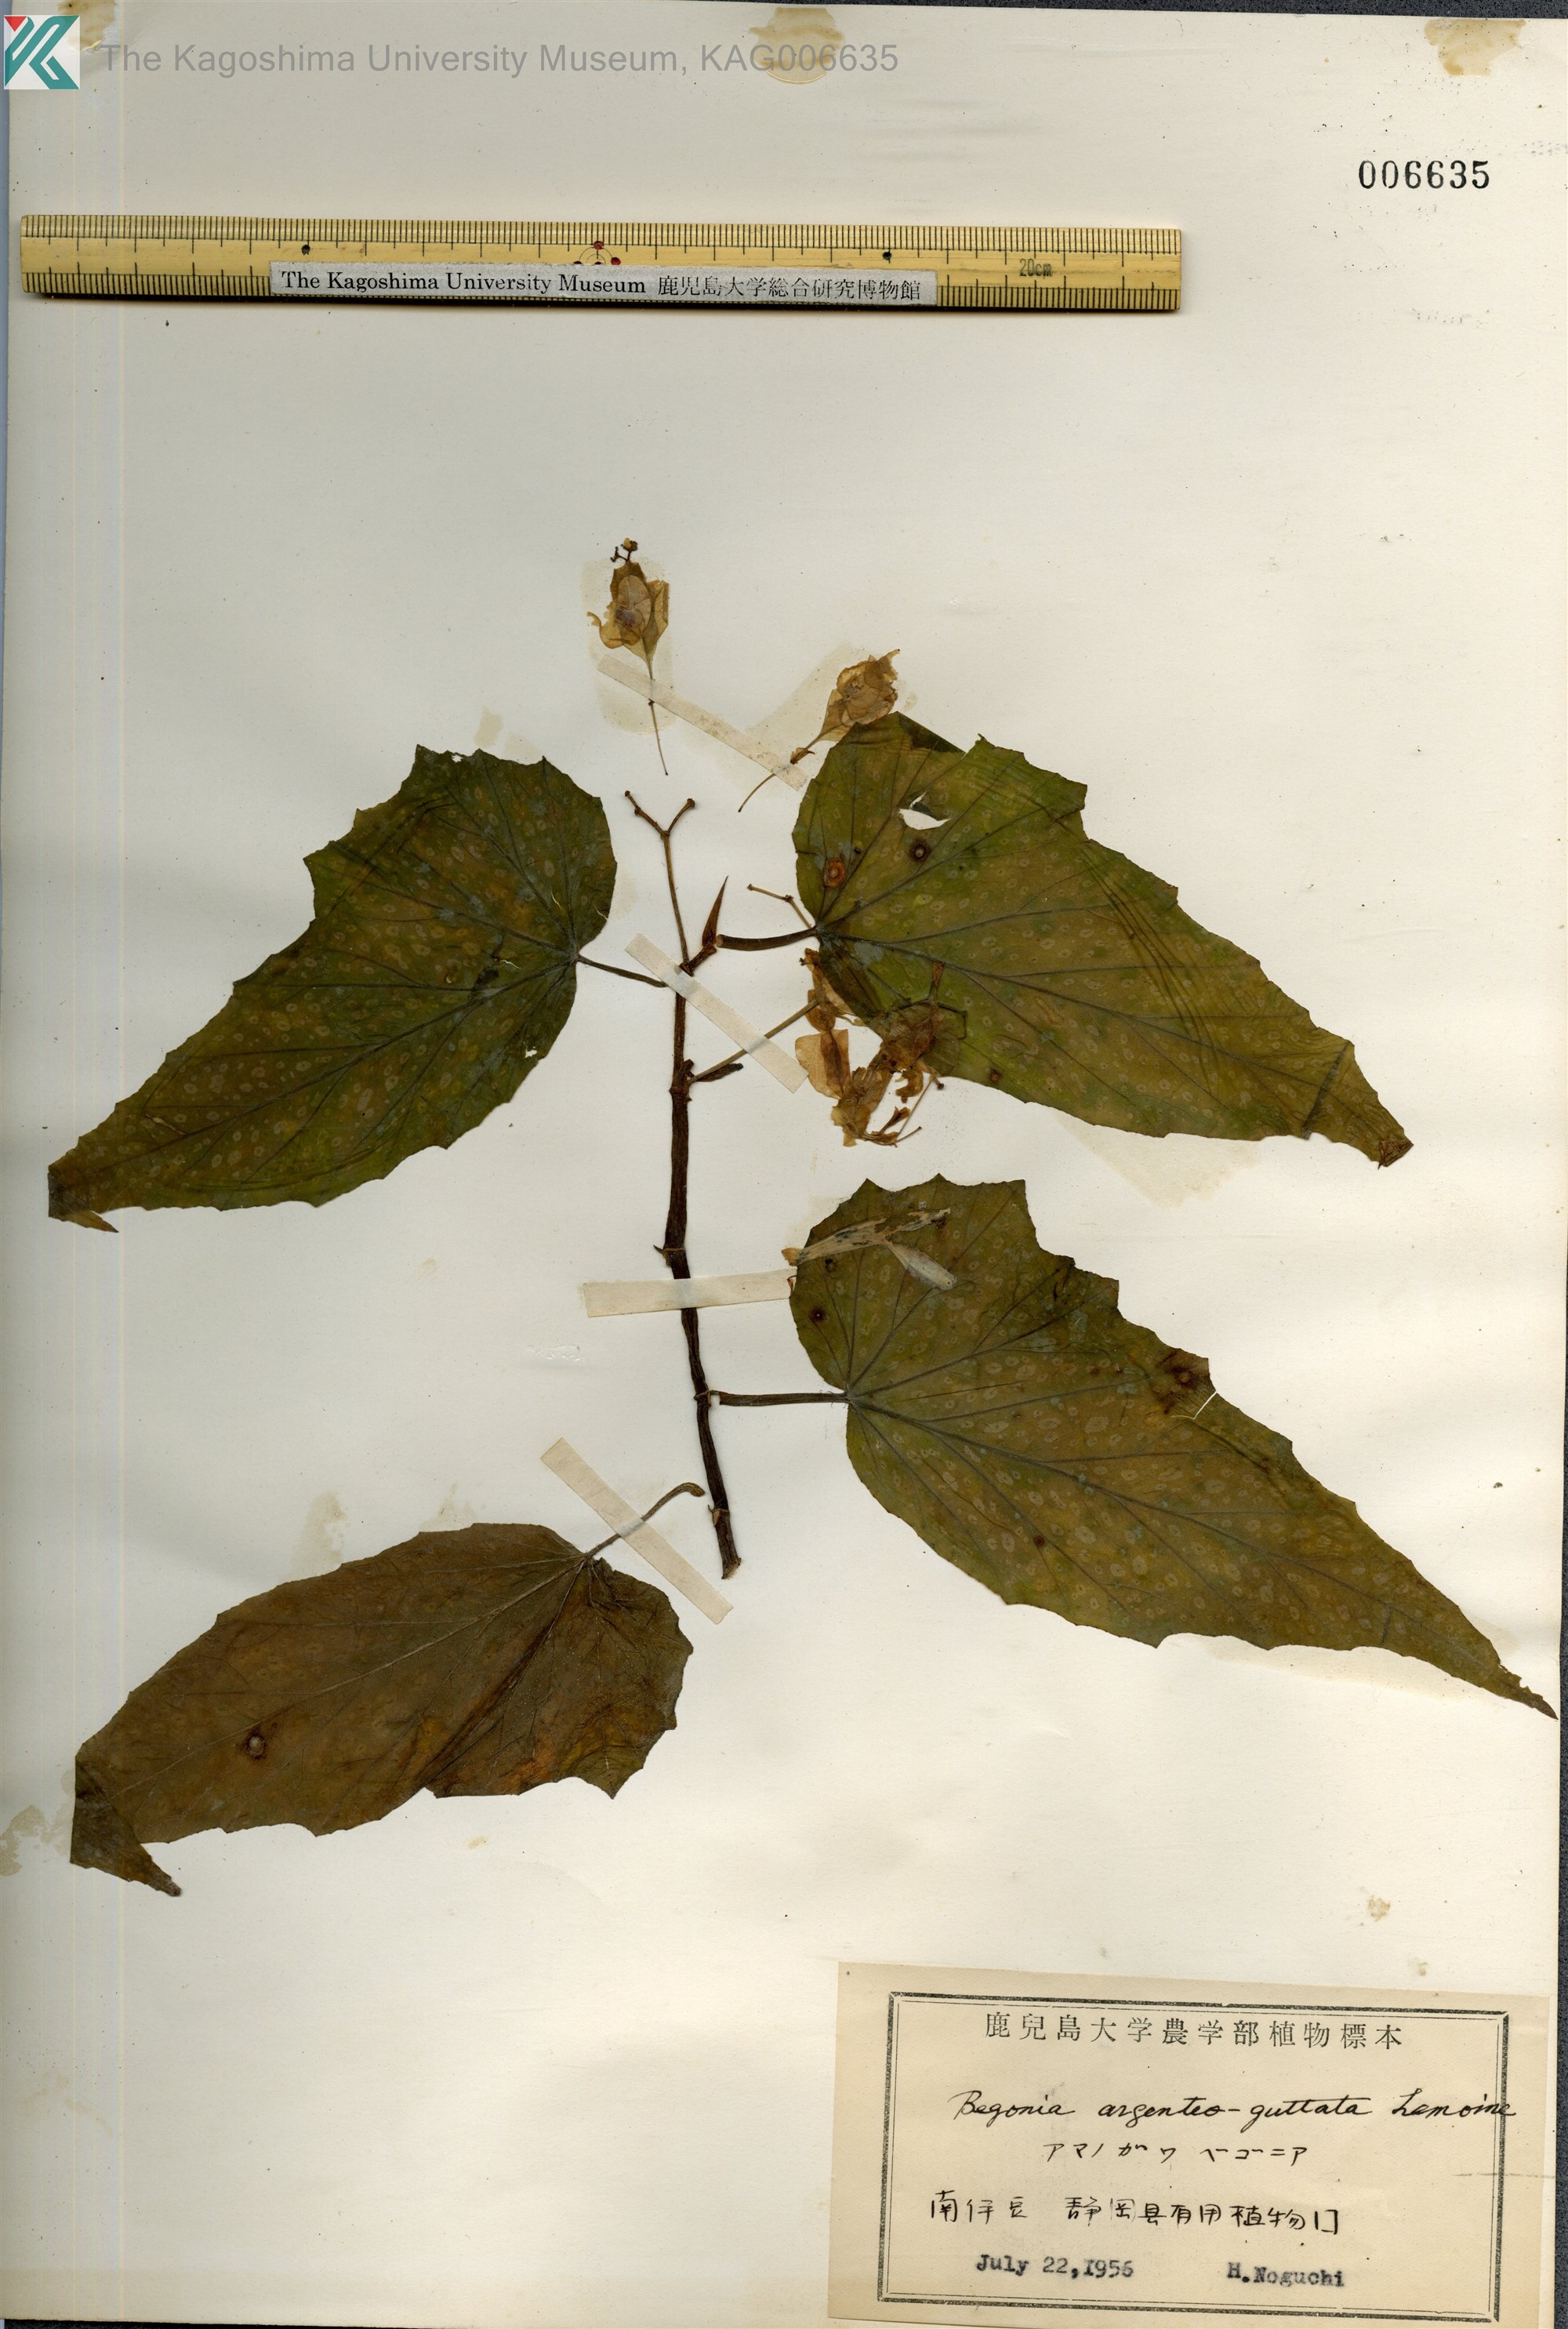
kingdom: Plantae
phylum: Tracheophyta
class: Magnoliopsida
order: Cucurbitales
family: Begoniaceae
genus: Begonia
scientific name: Begonia argenteo-guttata
